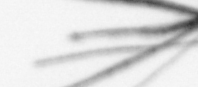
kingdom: Bacteria
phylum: Cyanobacteria
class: Cyanobacteriia
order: Cyanobacteriales
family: Microcoleaceae
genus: Trichodesmium
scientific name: Trichodesmium
